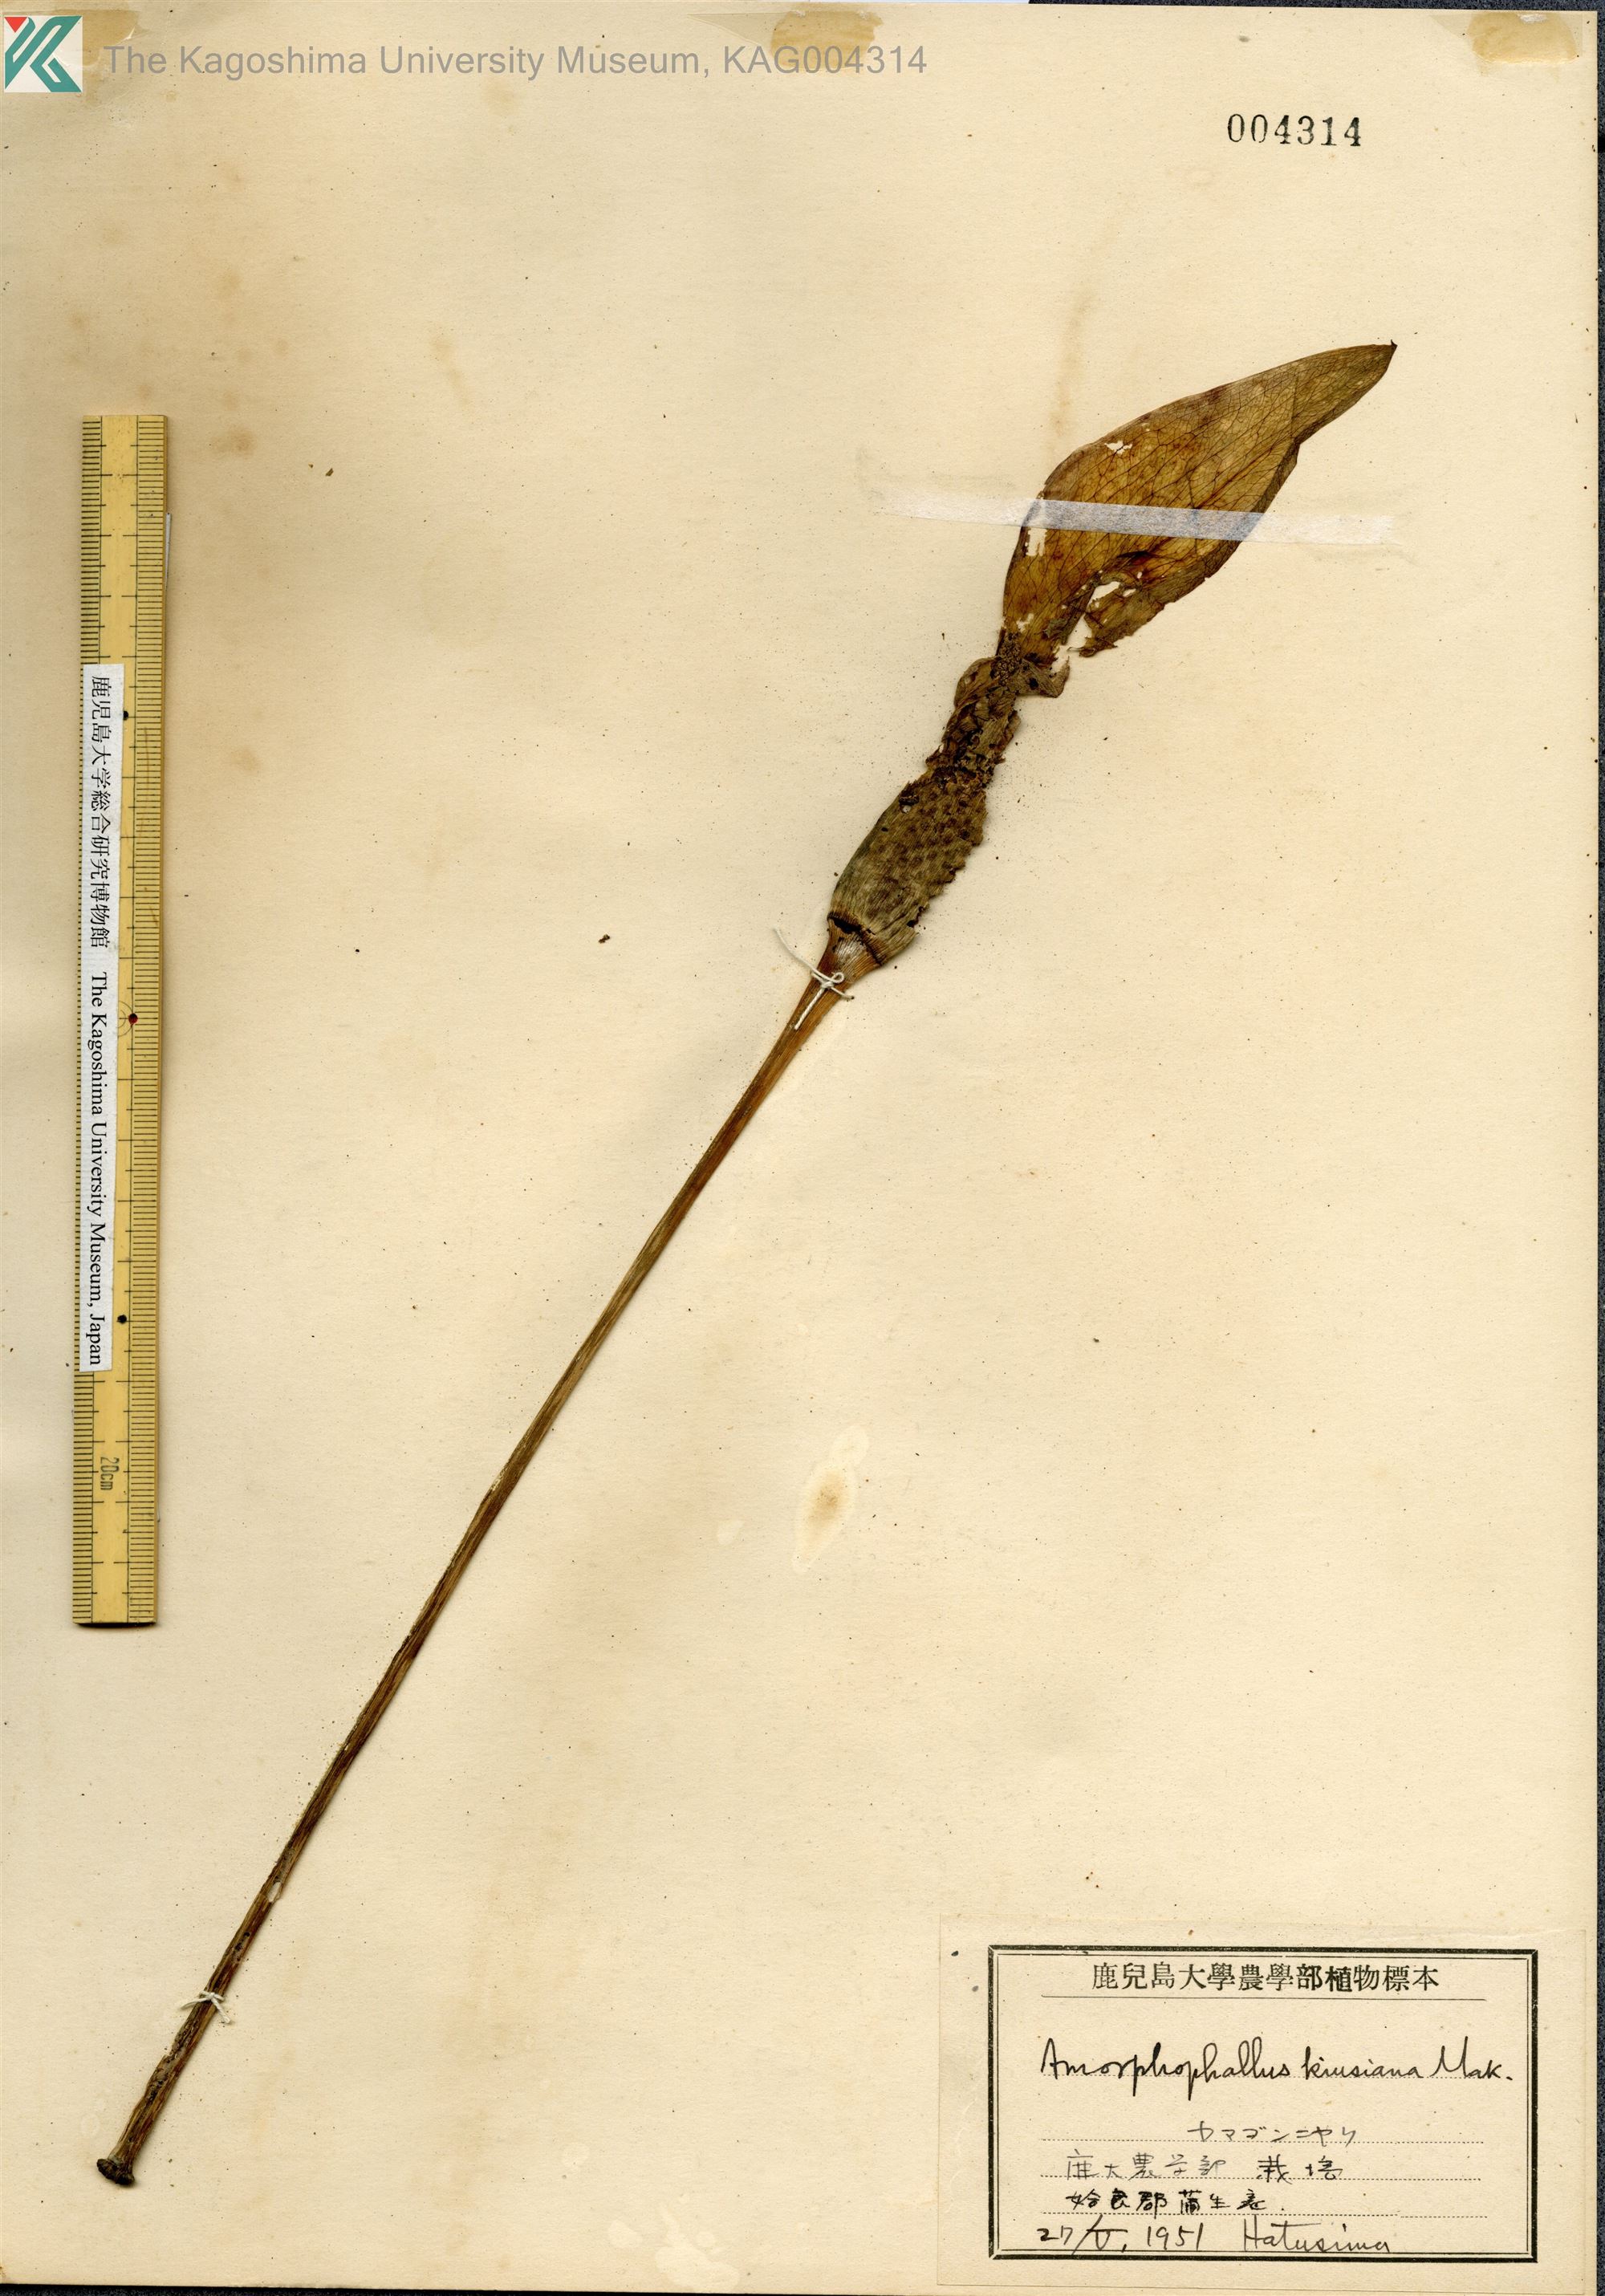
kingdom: Plantae
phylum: Tracheophyta
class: Liliopsida
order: Alismatales
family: Araceae
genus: Amorphophallus
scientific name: Amorphophallus kiusianus
